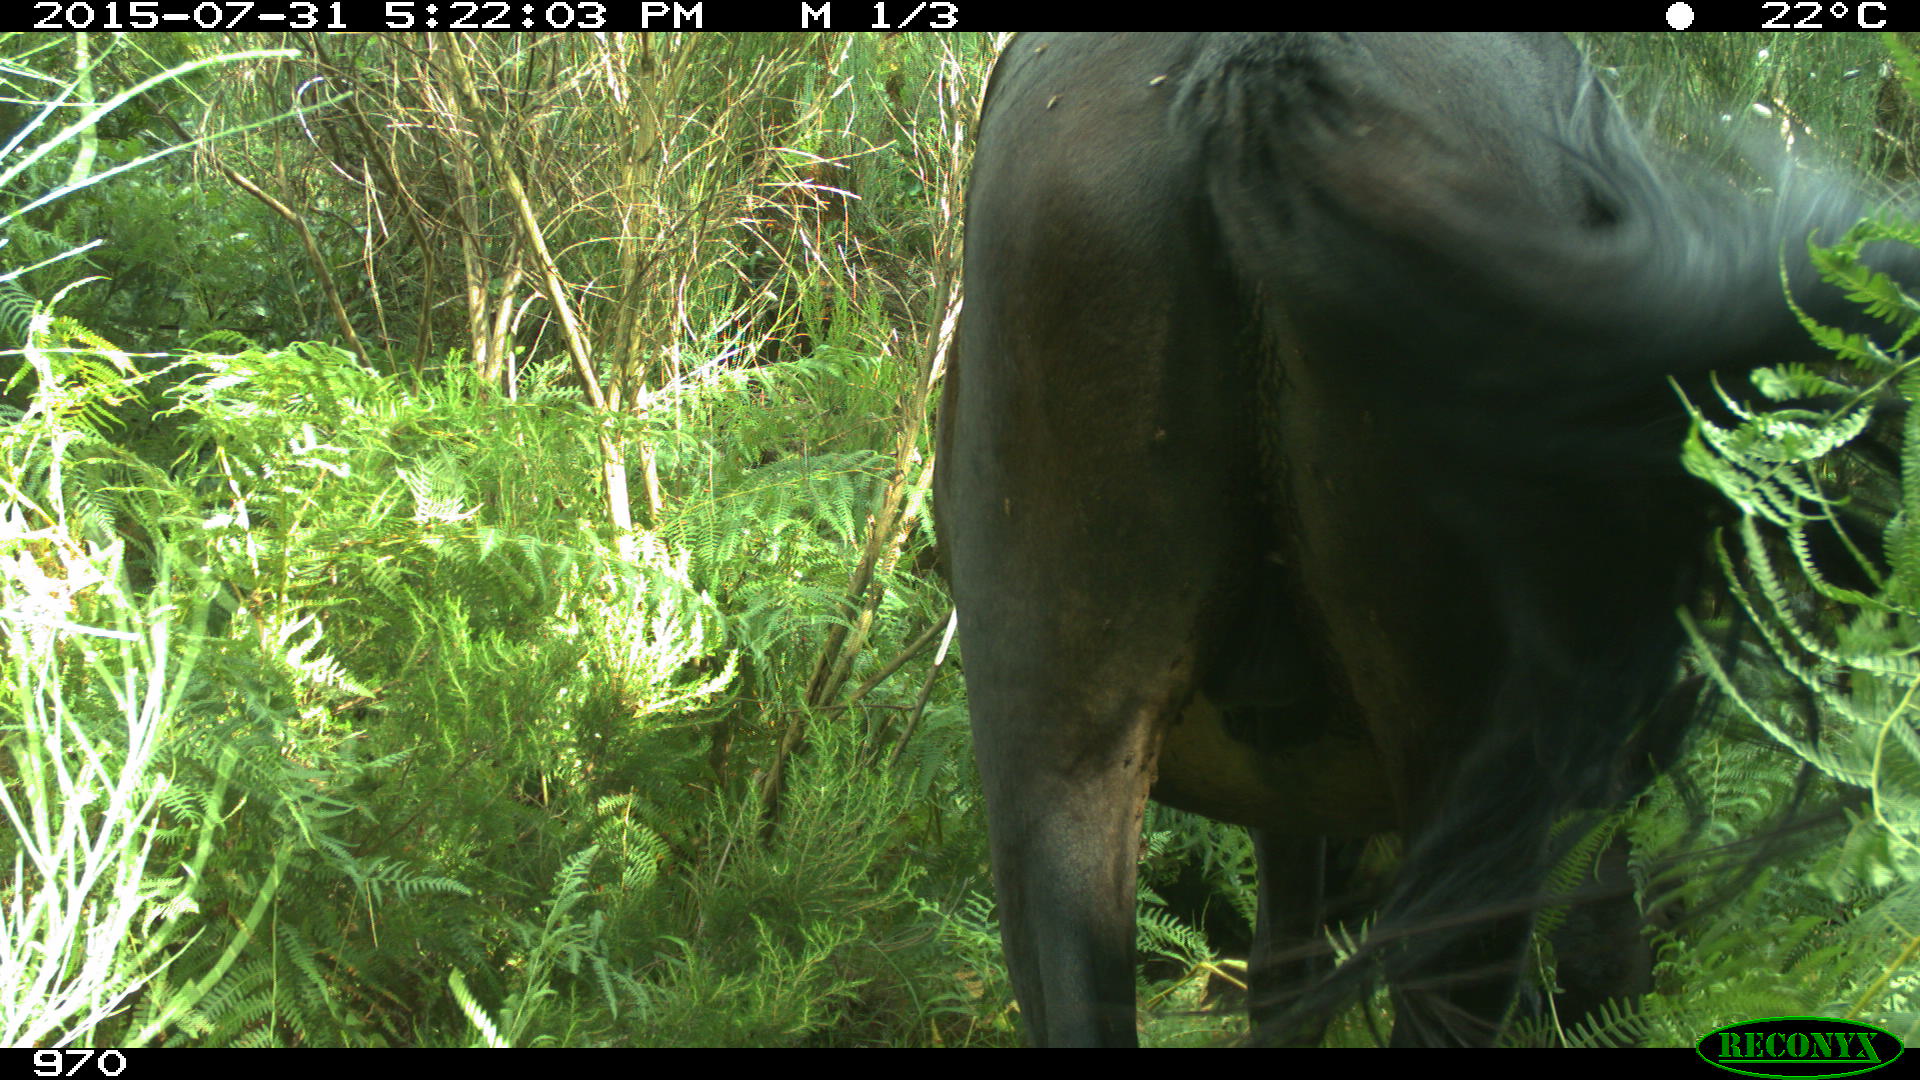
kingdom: Animalia
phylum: Chordata
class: Mammalia
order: Perissodactyla
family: Equidae
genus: Equus
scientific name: Equus caballus
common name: Horse
